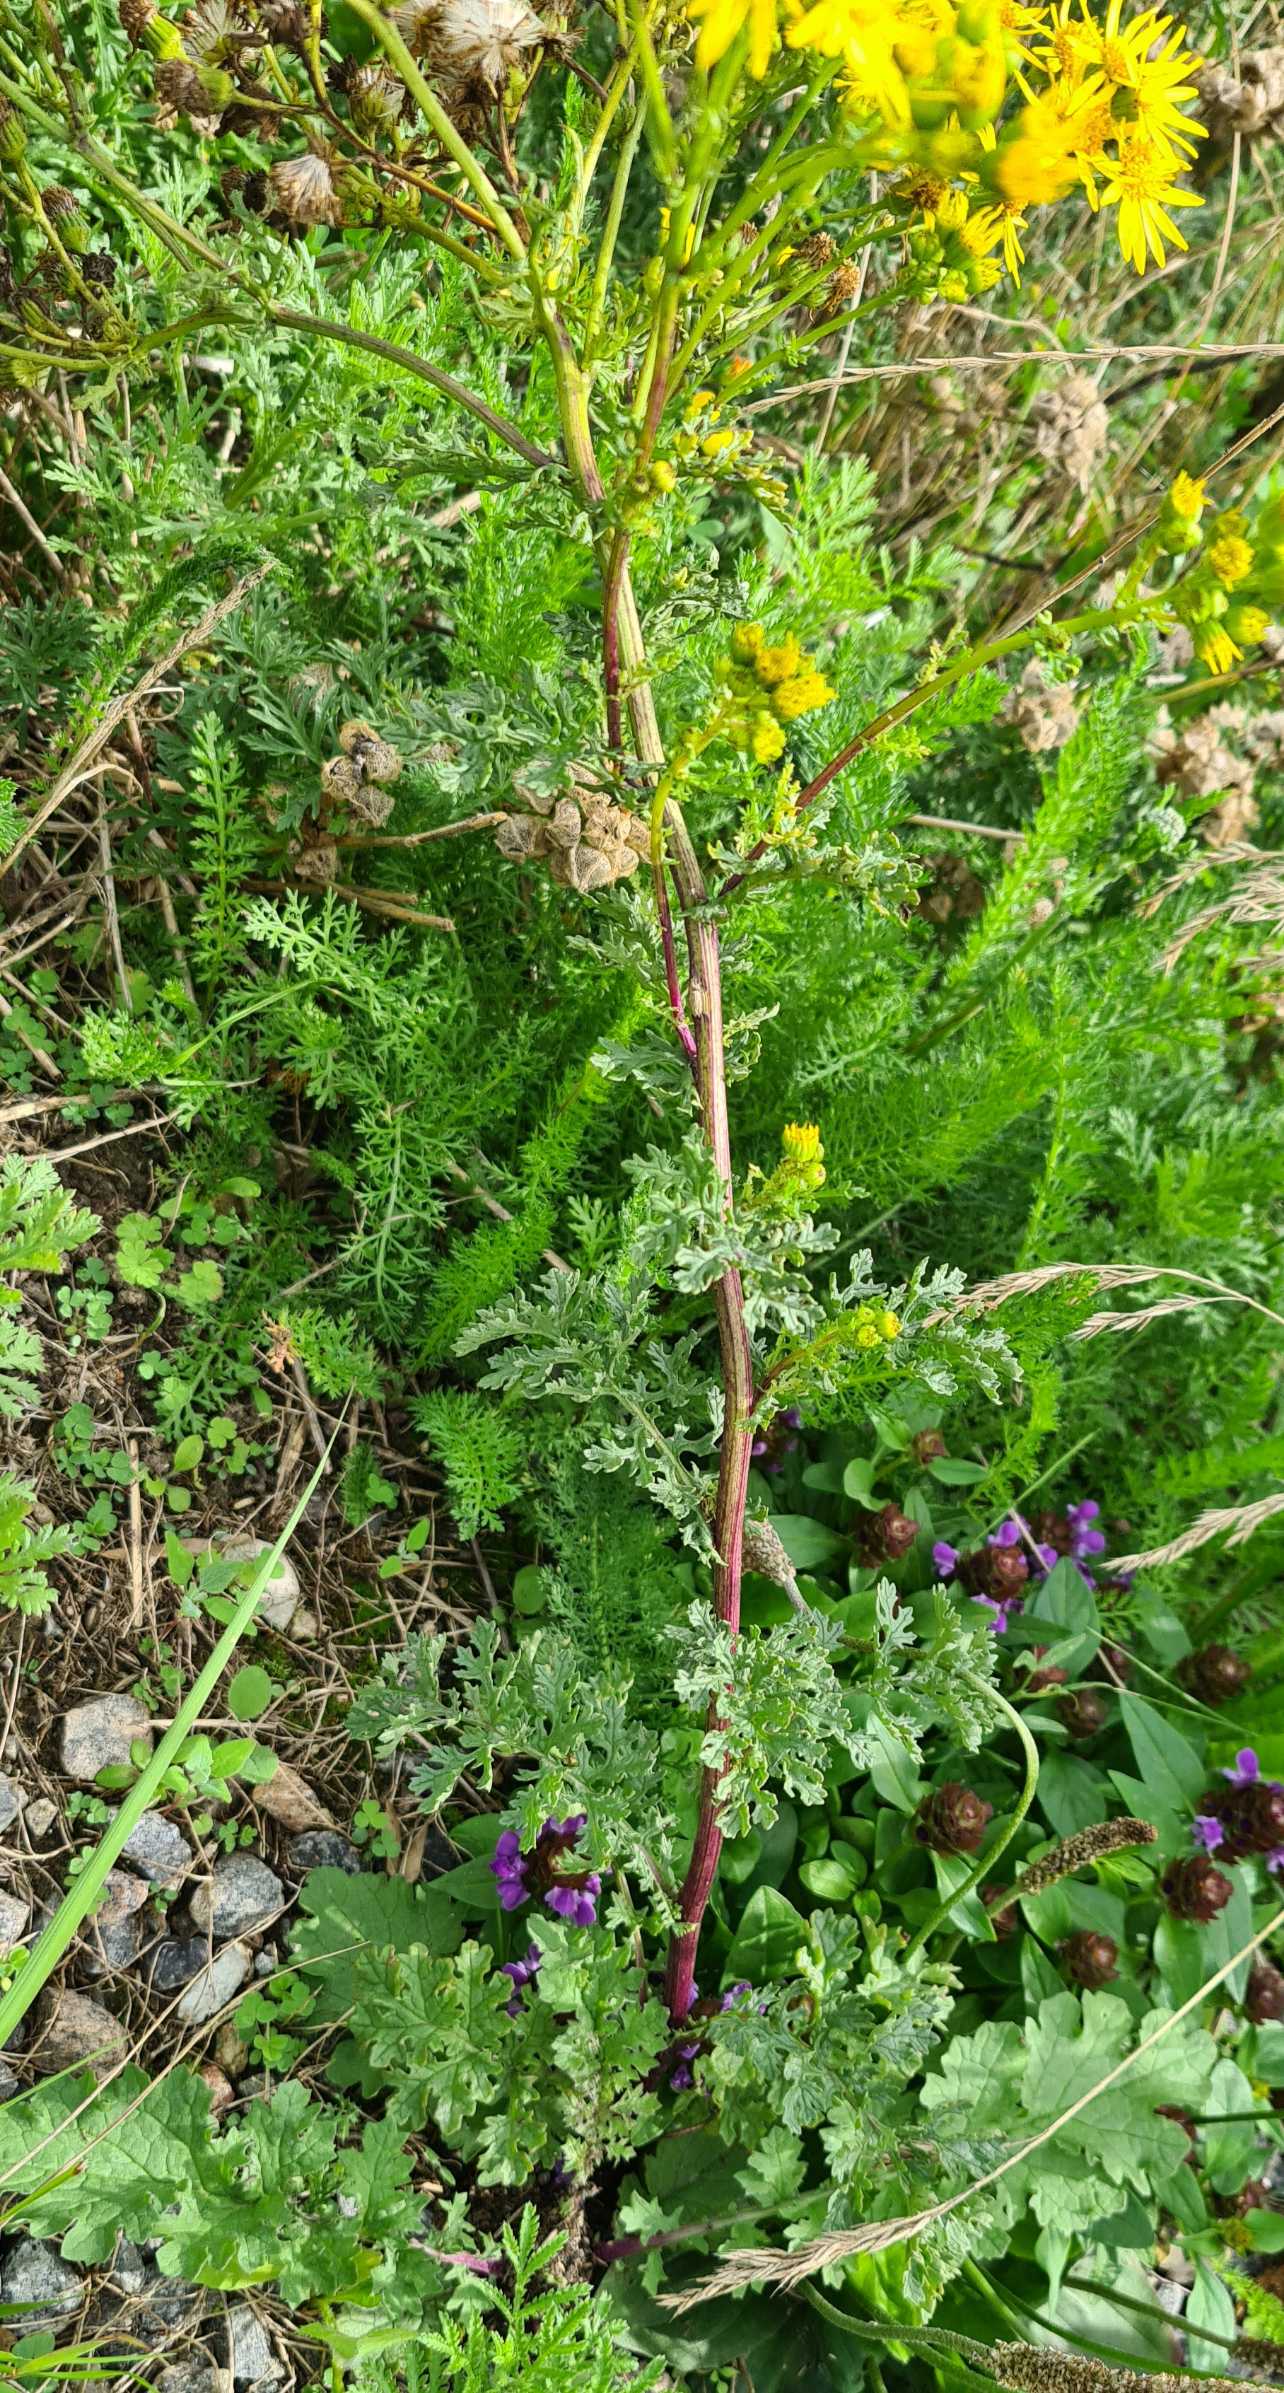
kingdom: Plantae
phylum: Tracheophyta
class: Magnoliopsida
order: Asterales
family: Asteraceae
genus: Jacobaea
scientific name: Jacobaea vulgaris
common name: Eng-brandbæger
